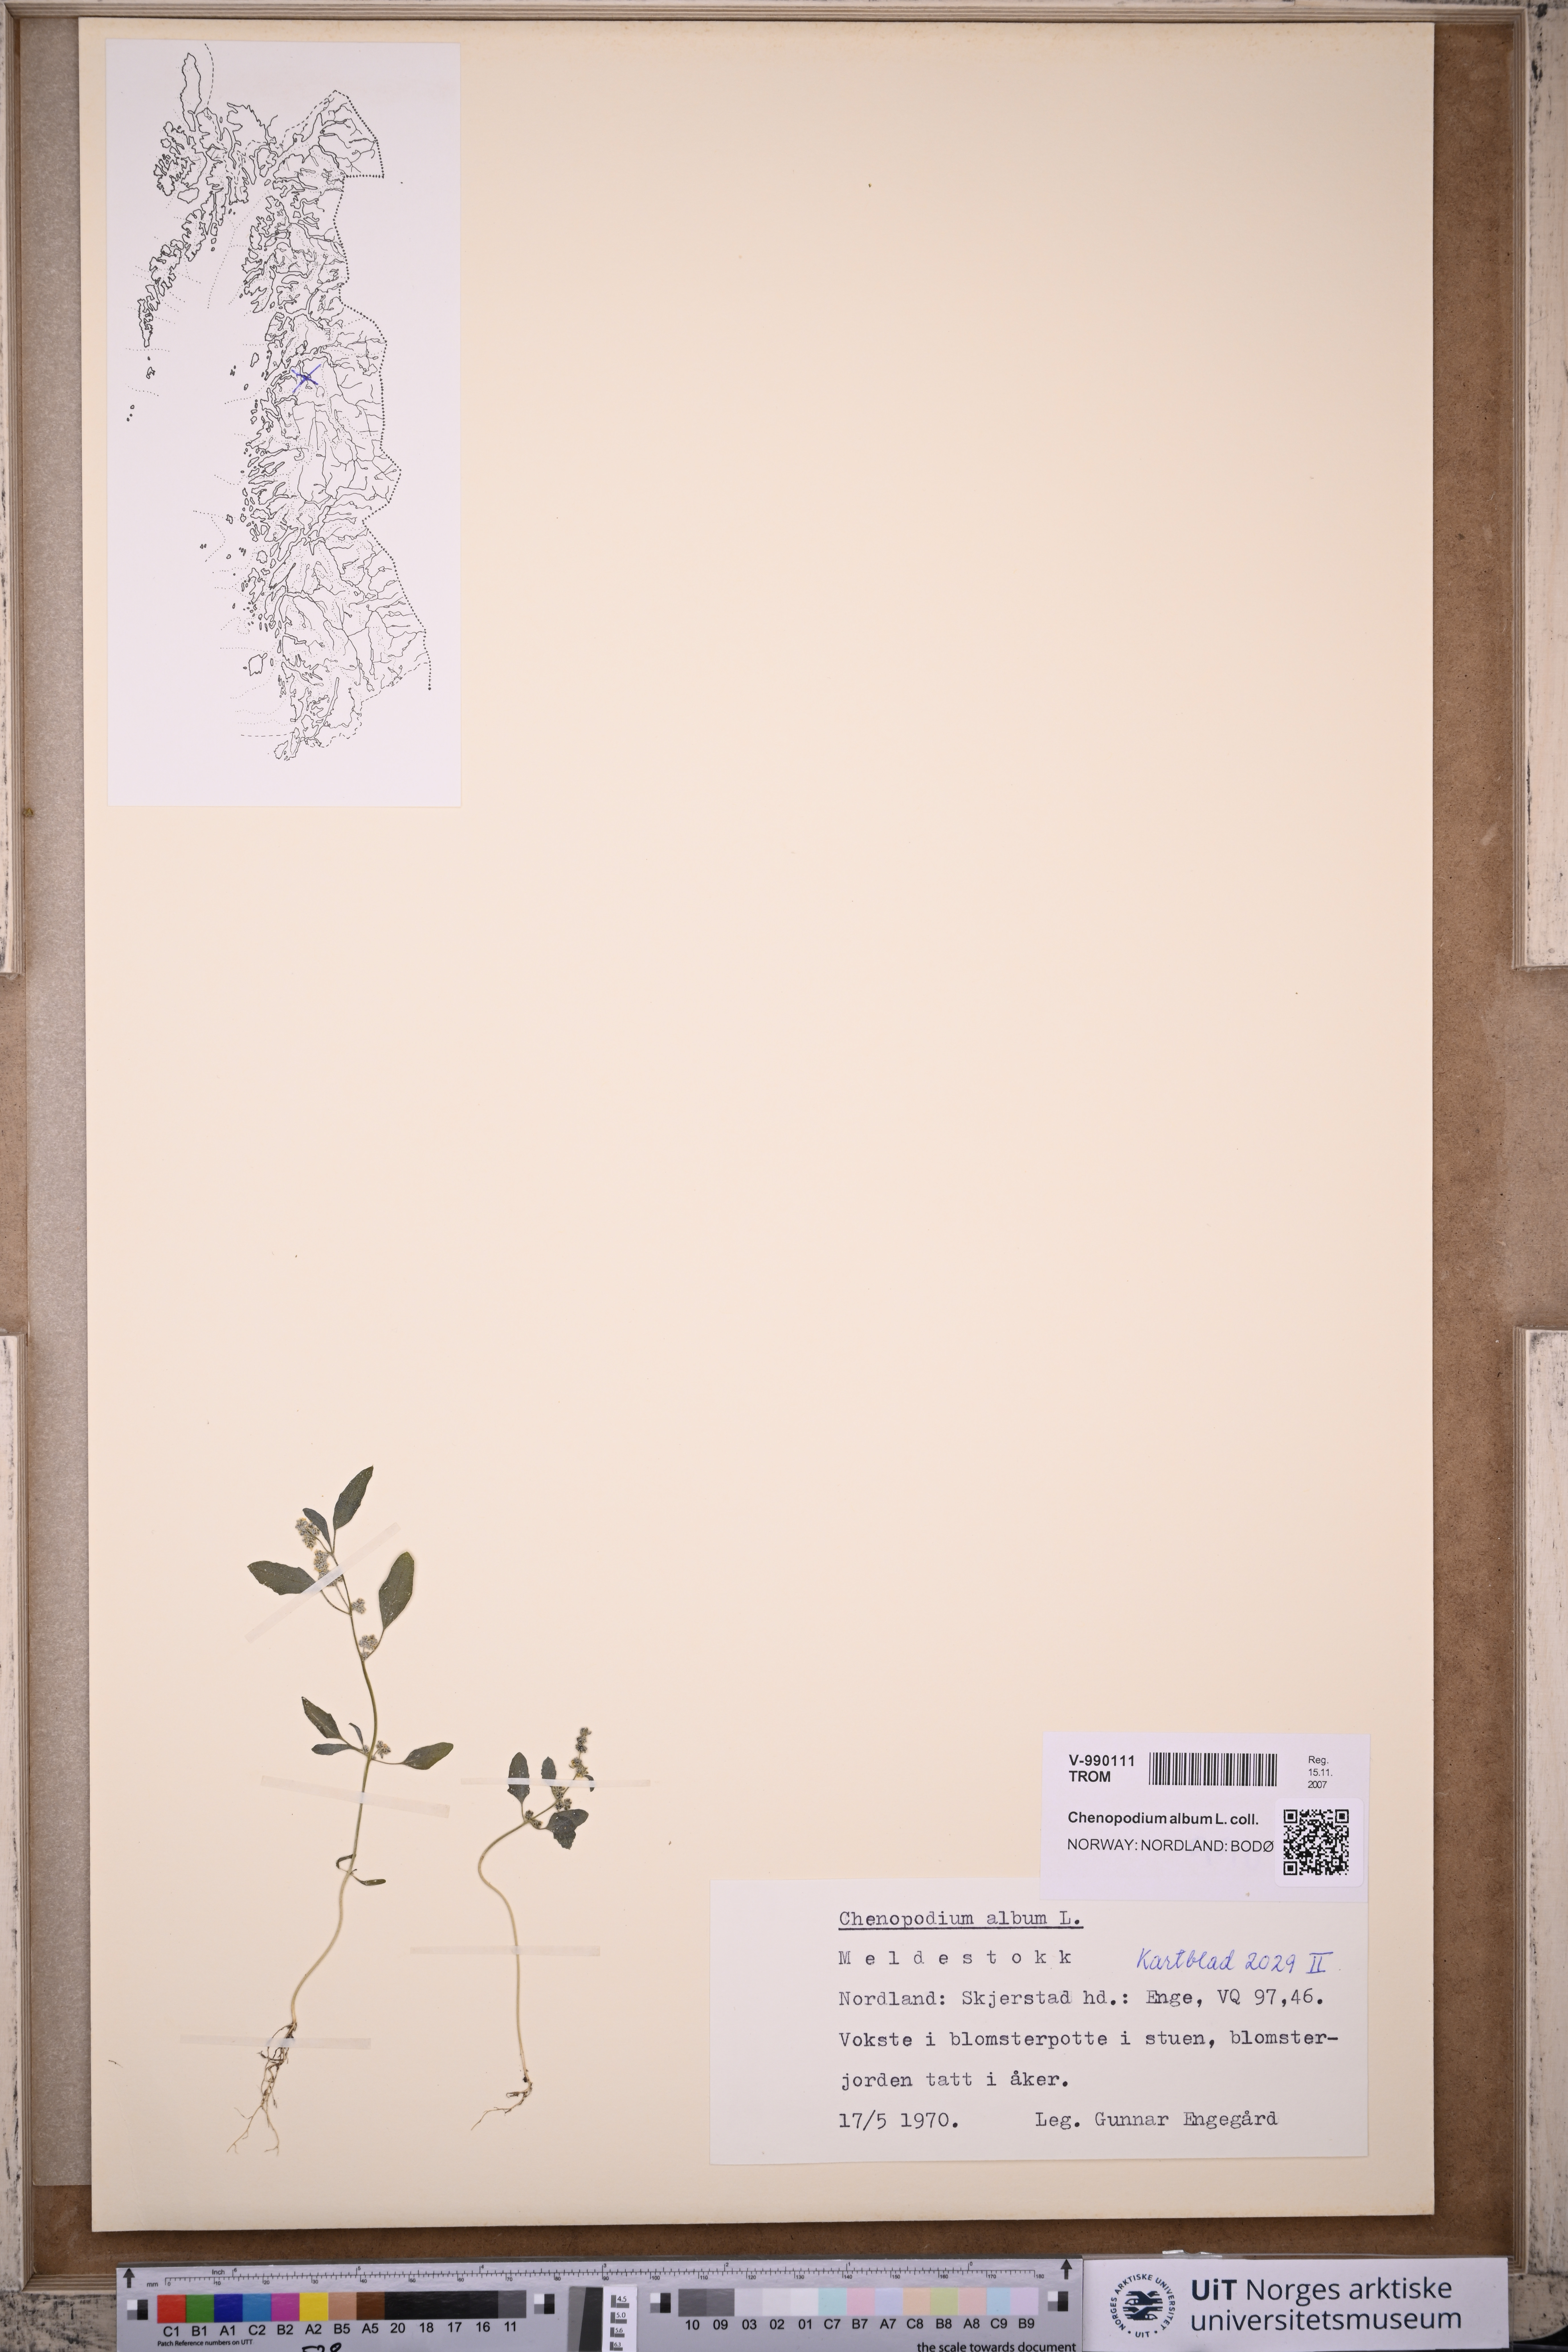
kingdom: Plantae
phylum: Tracheophyta
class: Magnoliopsida
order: Caryophyllales
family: Amaranthaceae
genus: Chenopodium
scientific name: Chenopodium album
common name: Fat-hen
